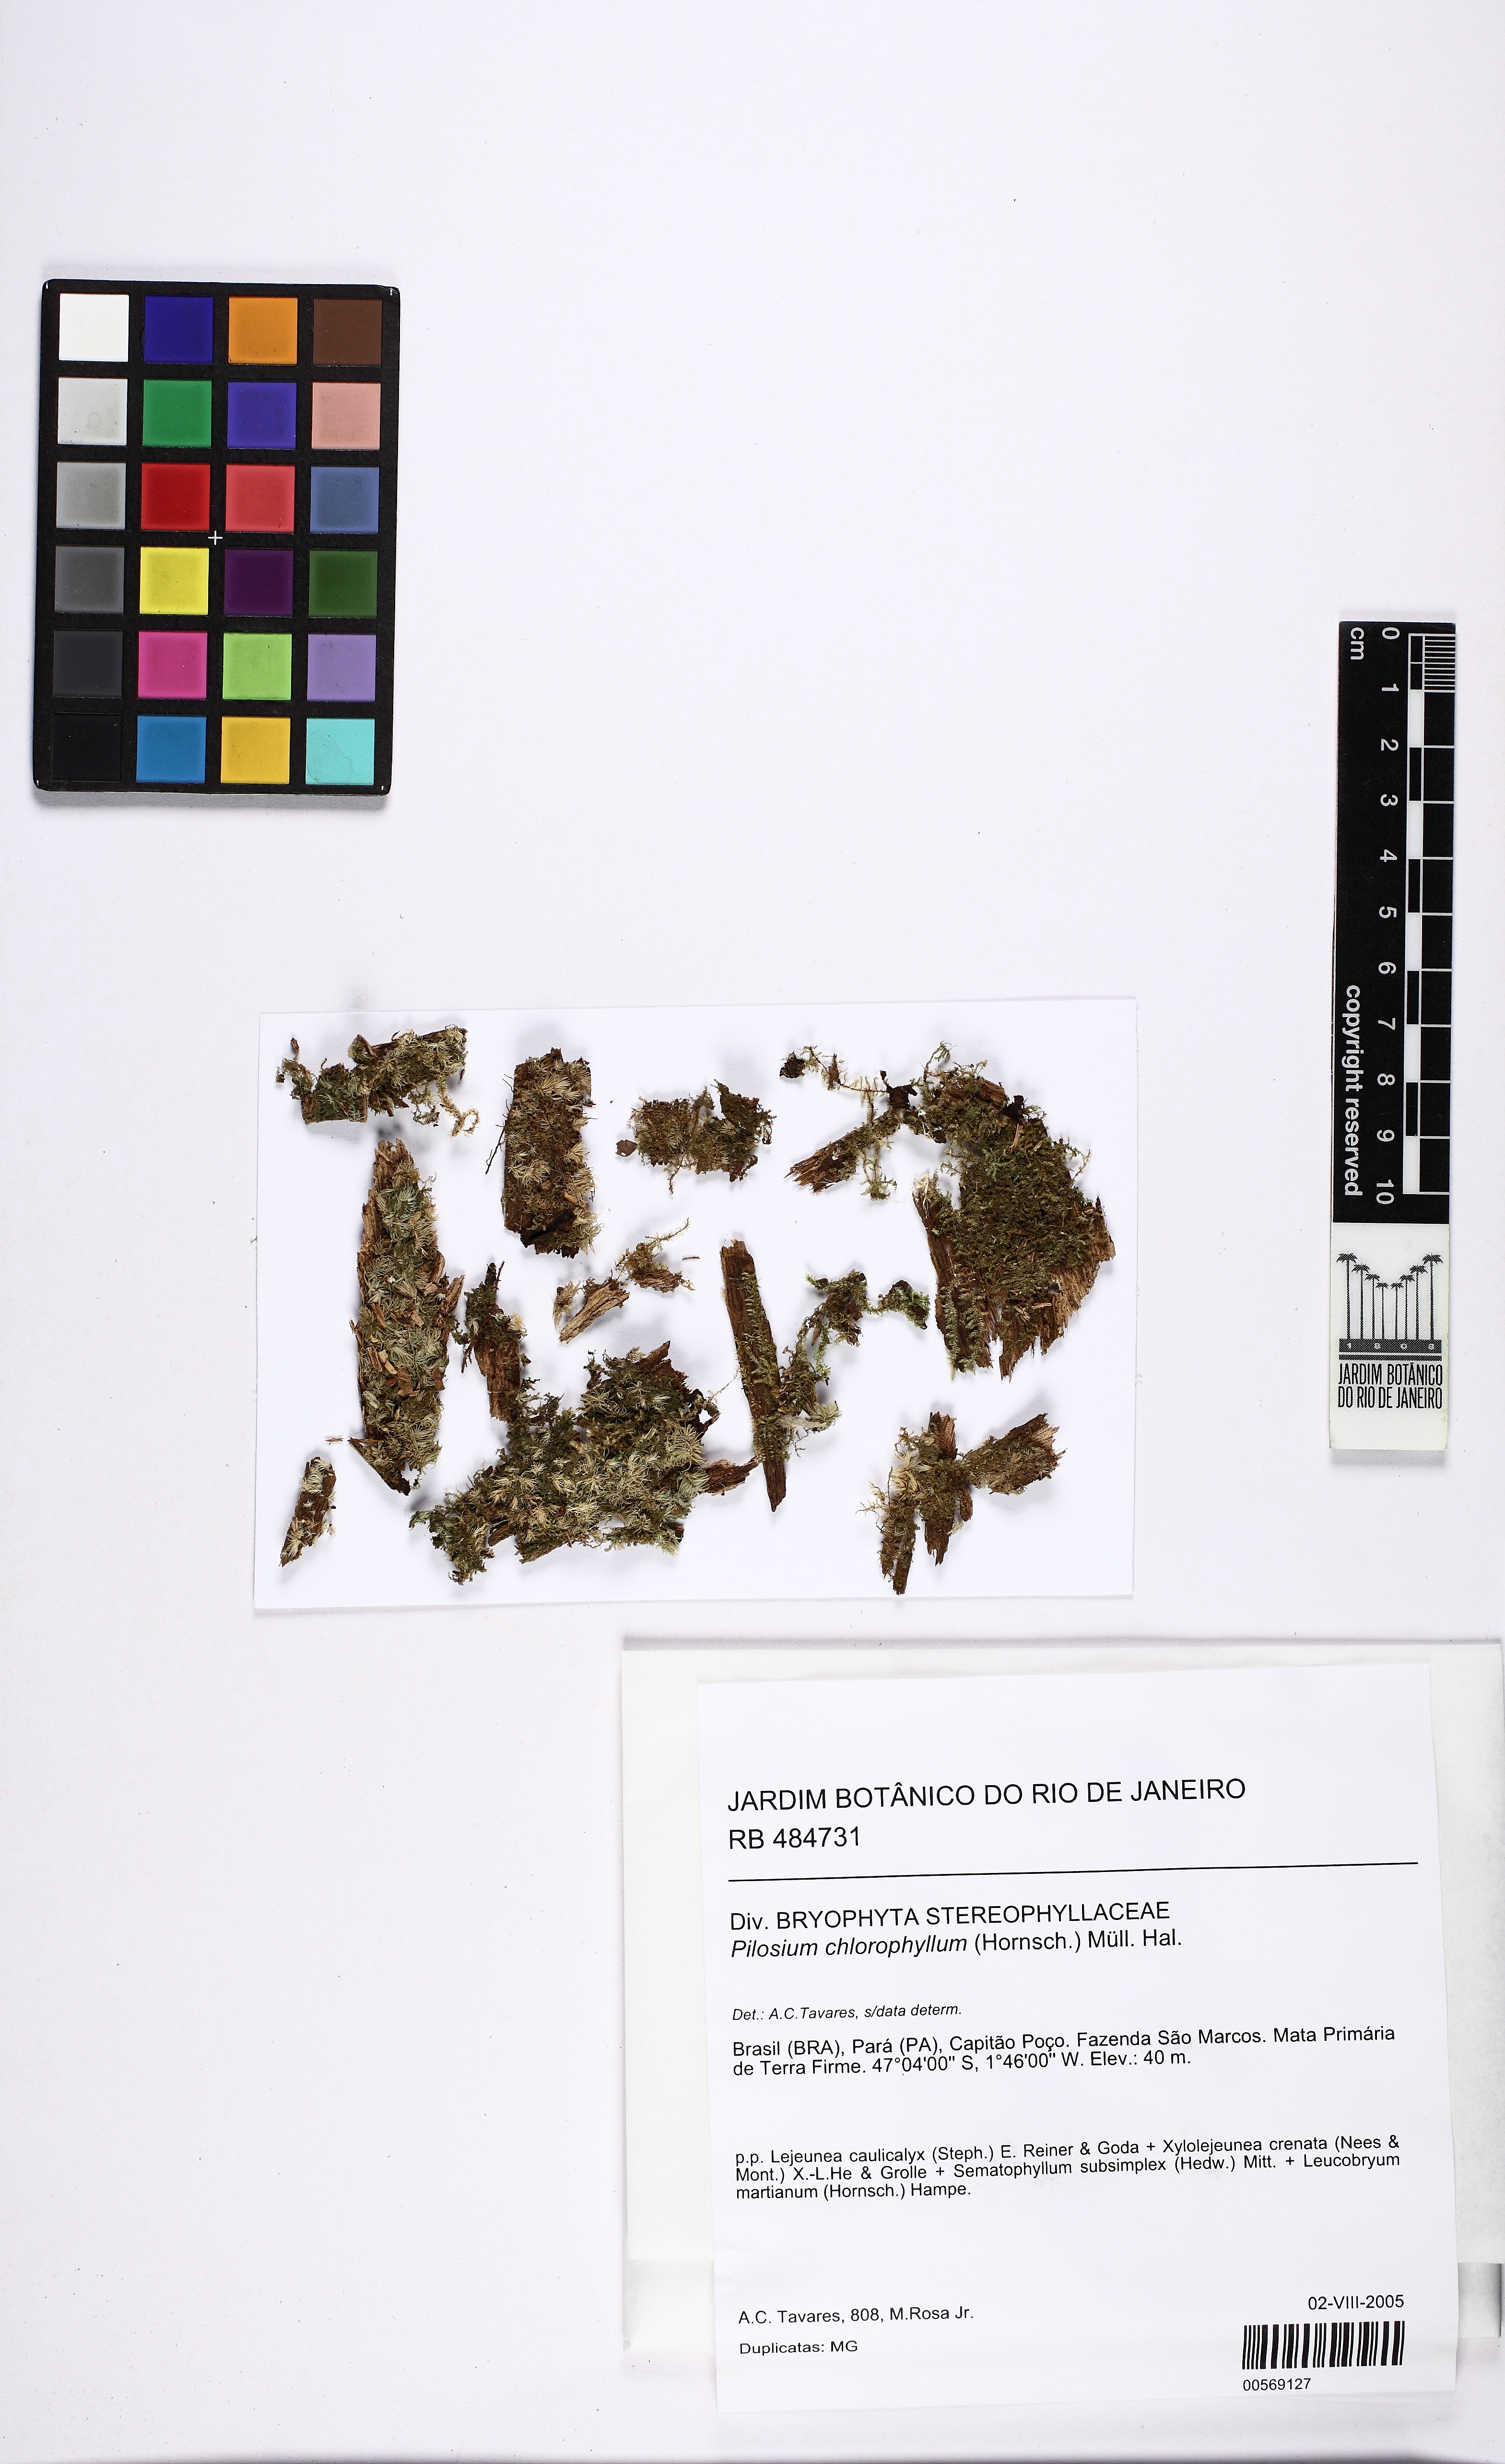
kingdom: Plantae
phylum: Bryophyta
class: Bryopsida
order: Hypnales
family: Stereophyllaceae
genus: Pilosium
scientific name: Pilosium chlorophyllum
